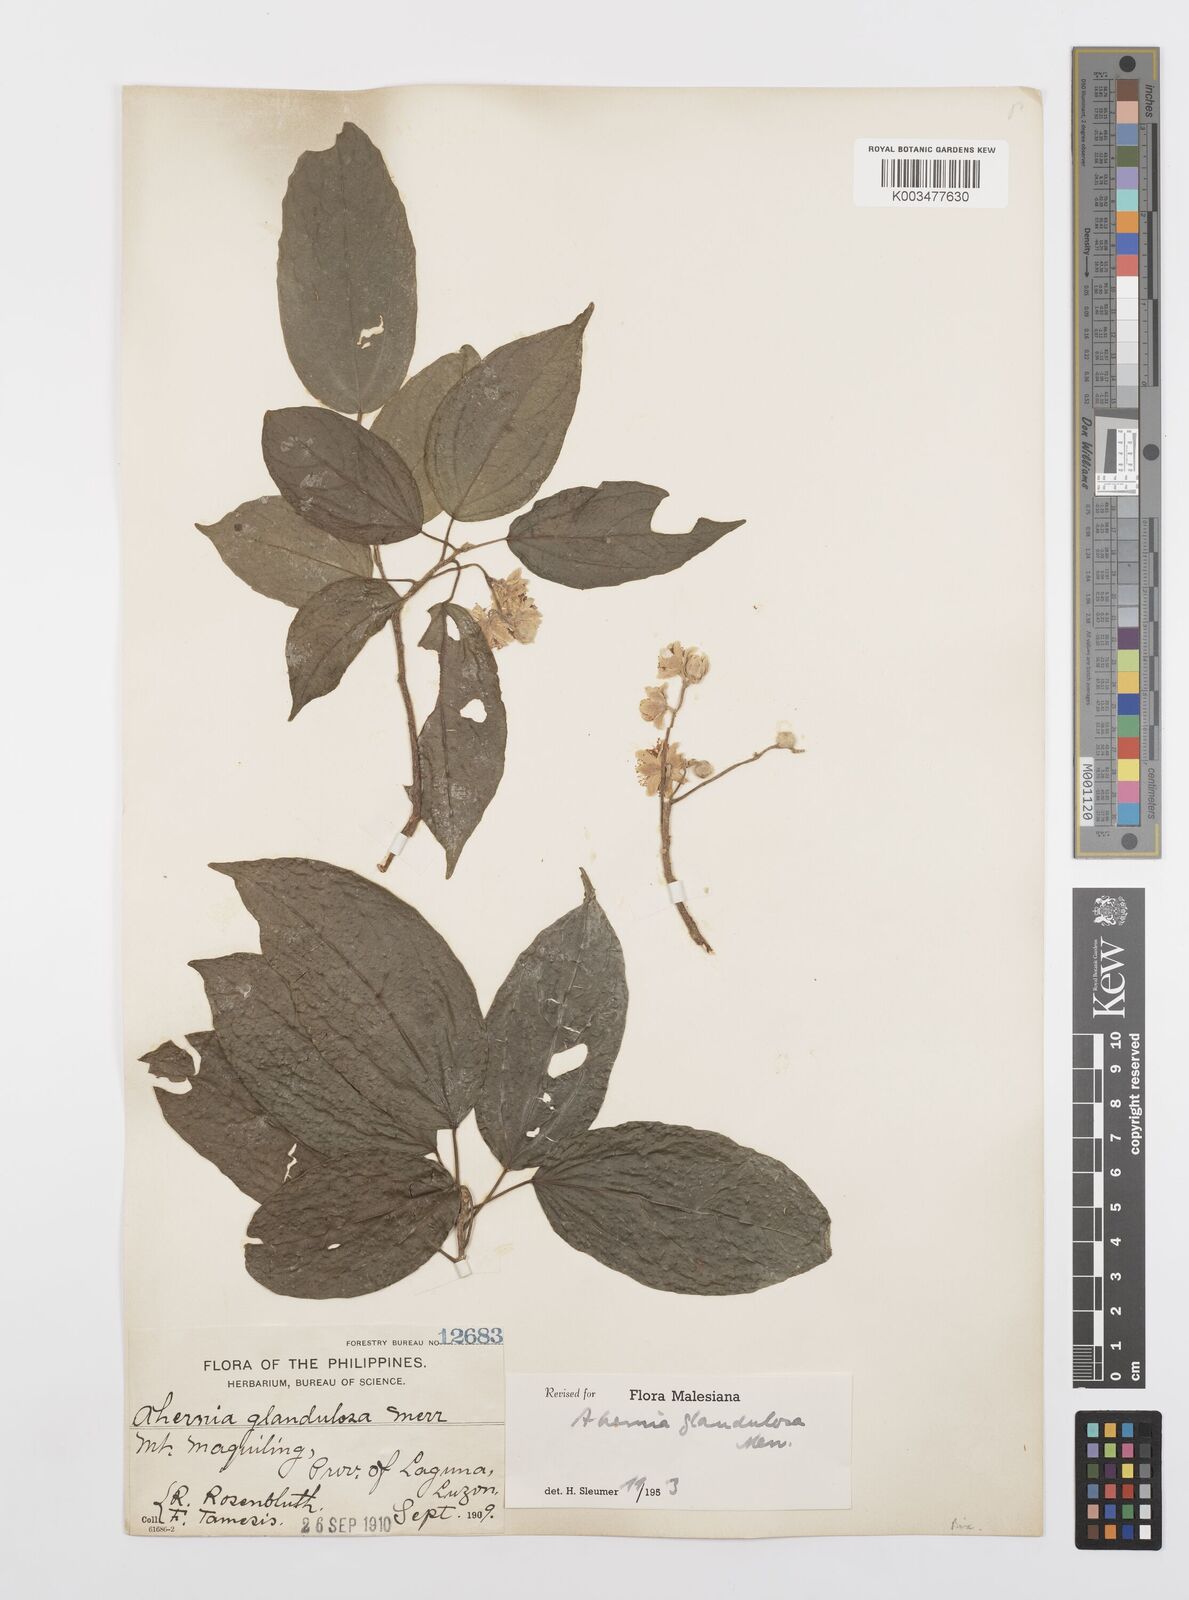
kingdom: Plantae
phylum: Tracheophyta
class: Magnoliopsida
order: Malpighiales
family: Achariaceae
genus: Ahernia
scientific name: Ahernia glandulosa
